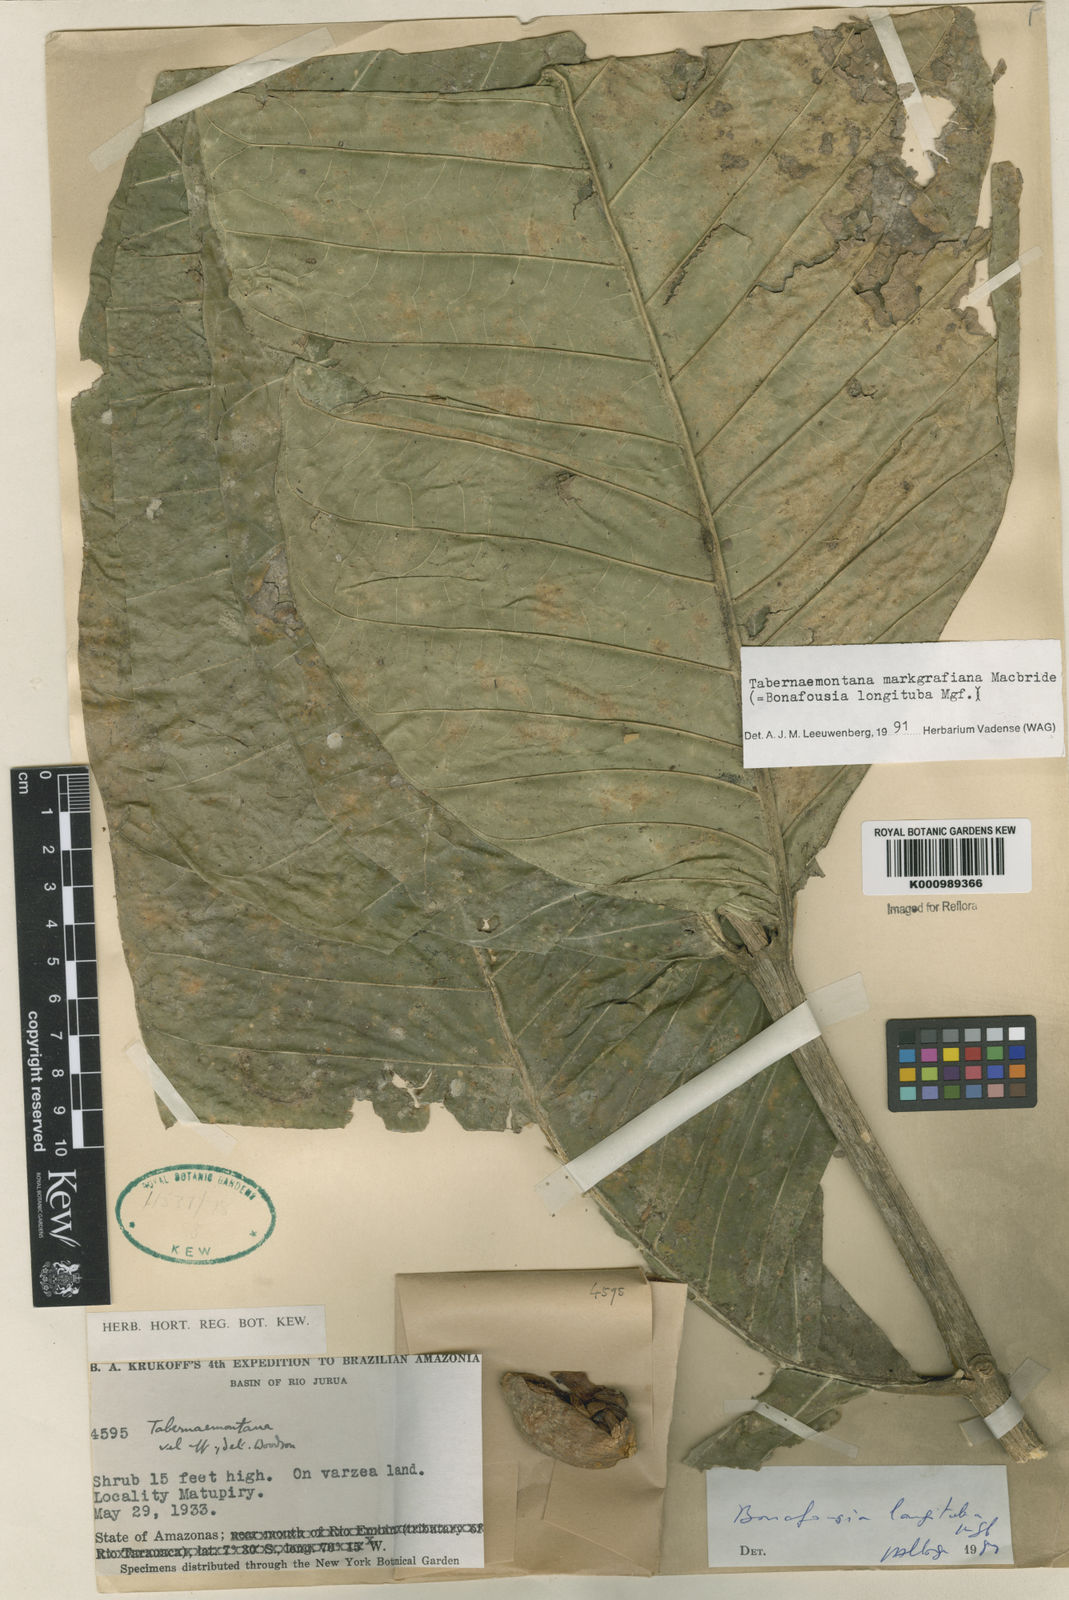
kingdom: Plantae
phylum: Tracheophyta
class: Magnoliopsida
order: Gentianales
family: Apocynaceae
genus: Tabernaemontana
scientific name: Tabernaemontana markgrafiana
